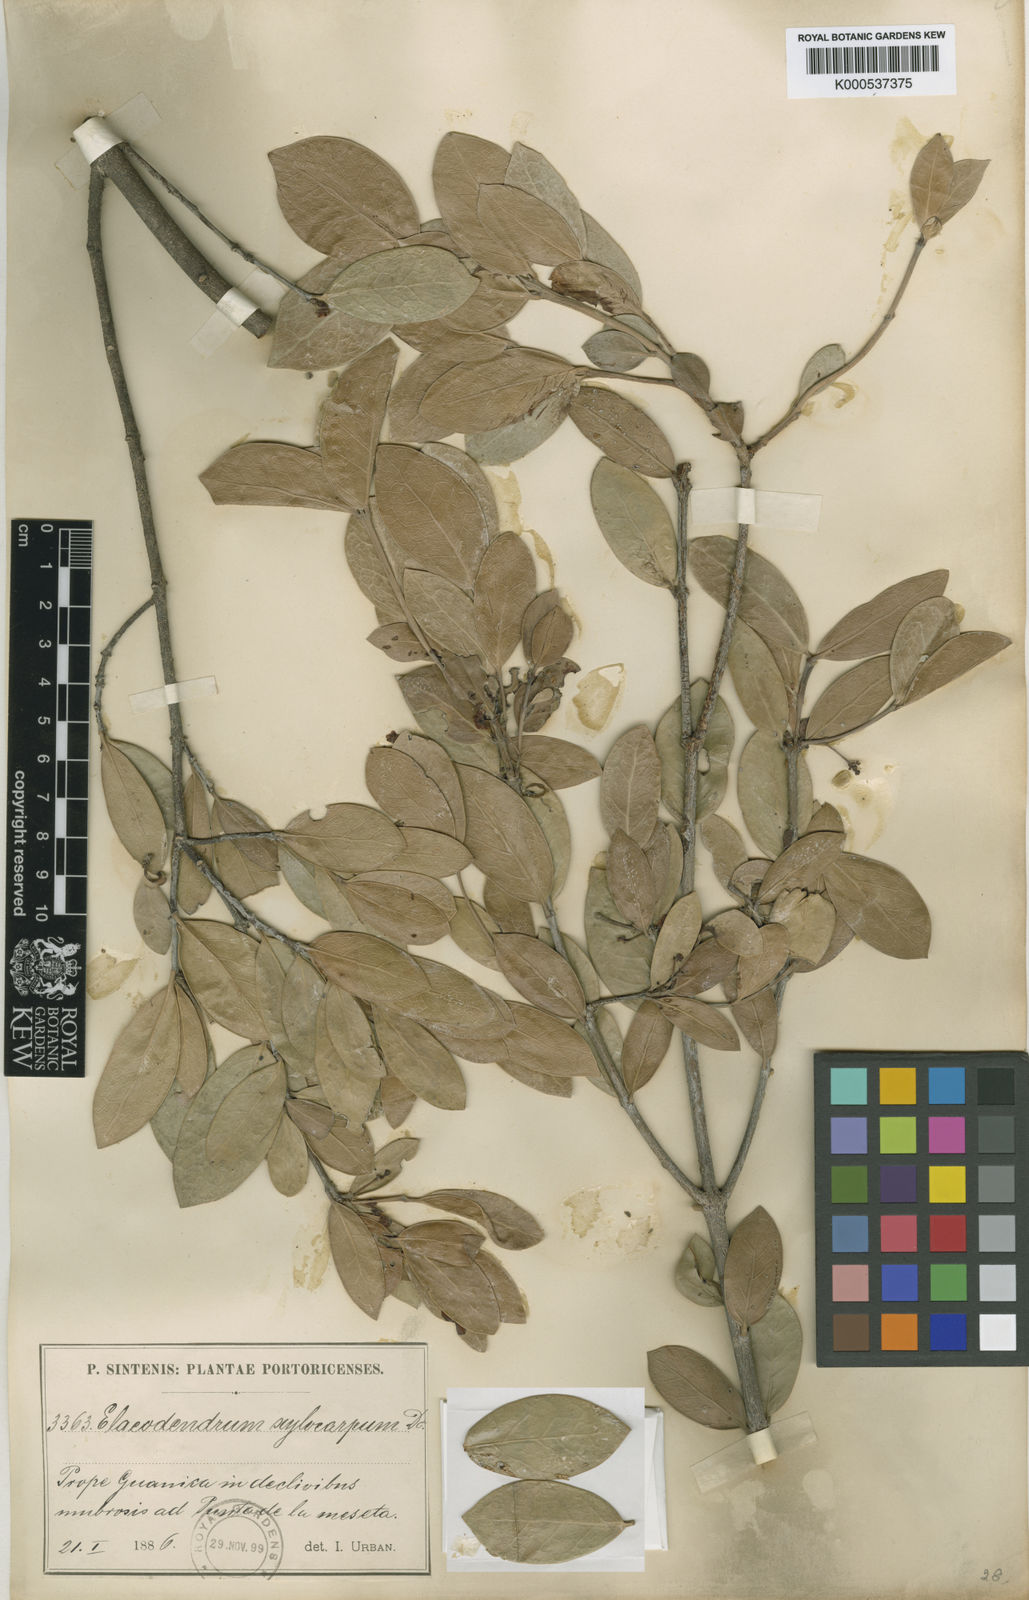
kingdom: Plantae
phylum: Tracheophyta
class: Magnoliopsida
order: Celastrales
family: Celastraceae
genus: Elaeodendron
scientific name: Elaeodendron xylocarpum
